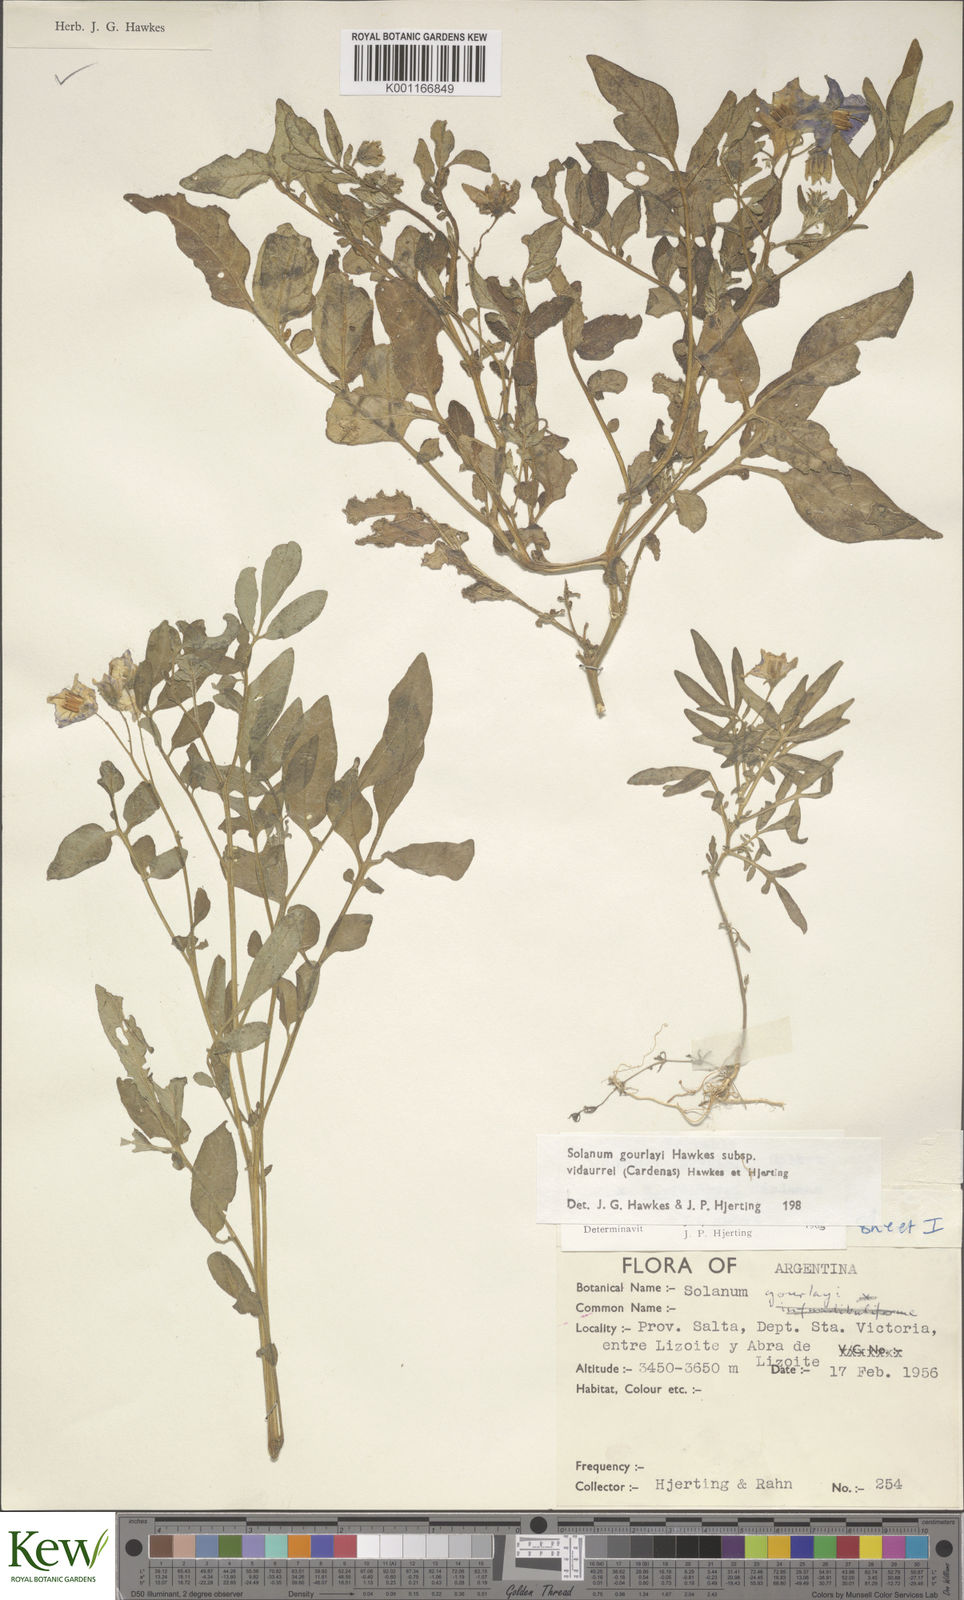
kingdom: Plantae
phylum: Tracheophyta
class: Magnoliopsida
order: Solanales
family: Solanaceae
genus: Solanum
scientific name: Solanum brevicaule
